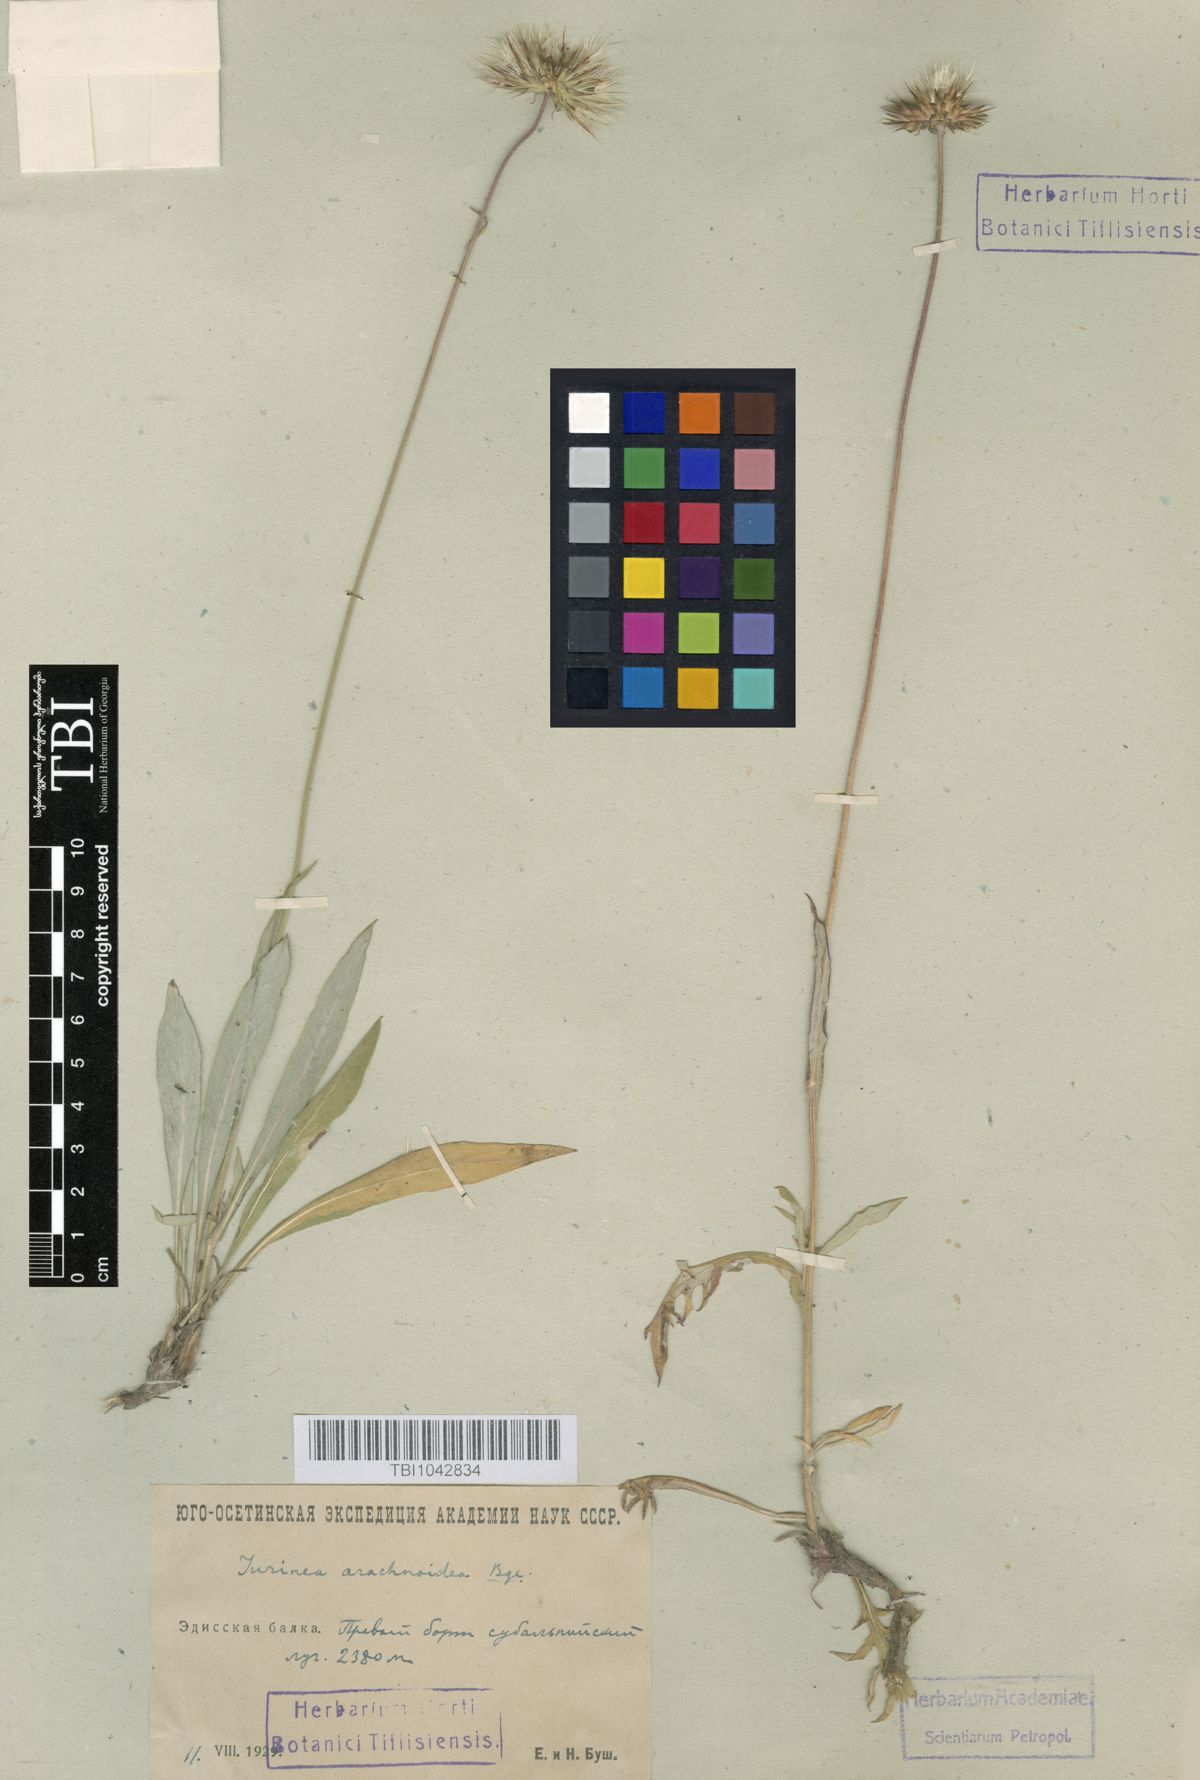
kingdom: Plantae
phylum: Tracheophyta
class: Magnoliopsida
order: Asterales
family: Asteraceae
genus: Jurinea
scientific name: Jurinea blanda
